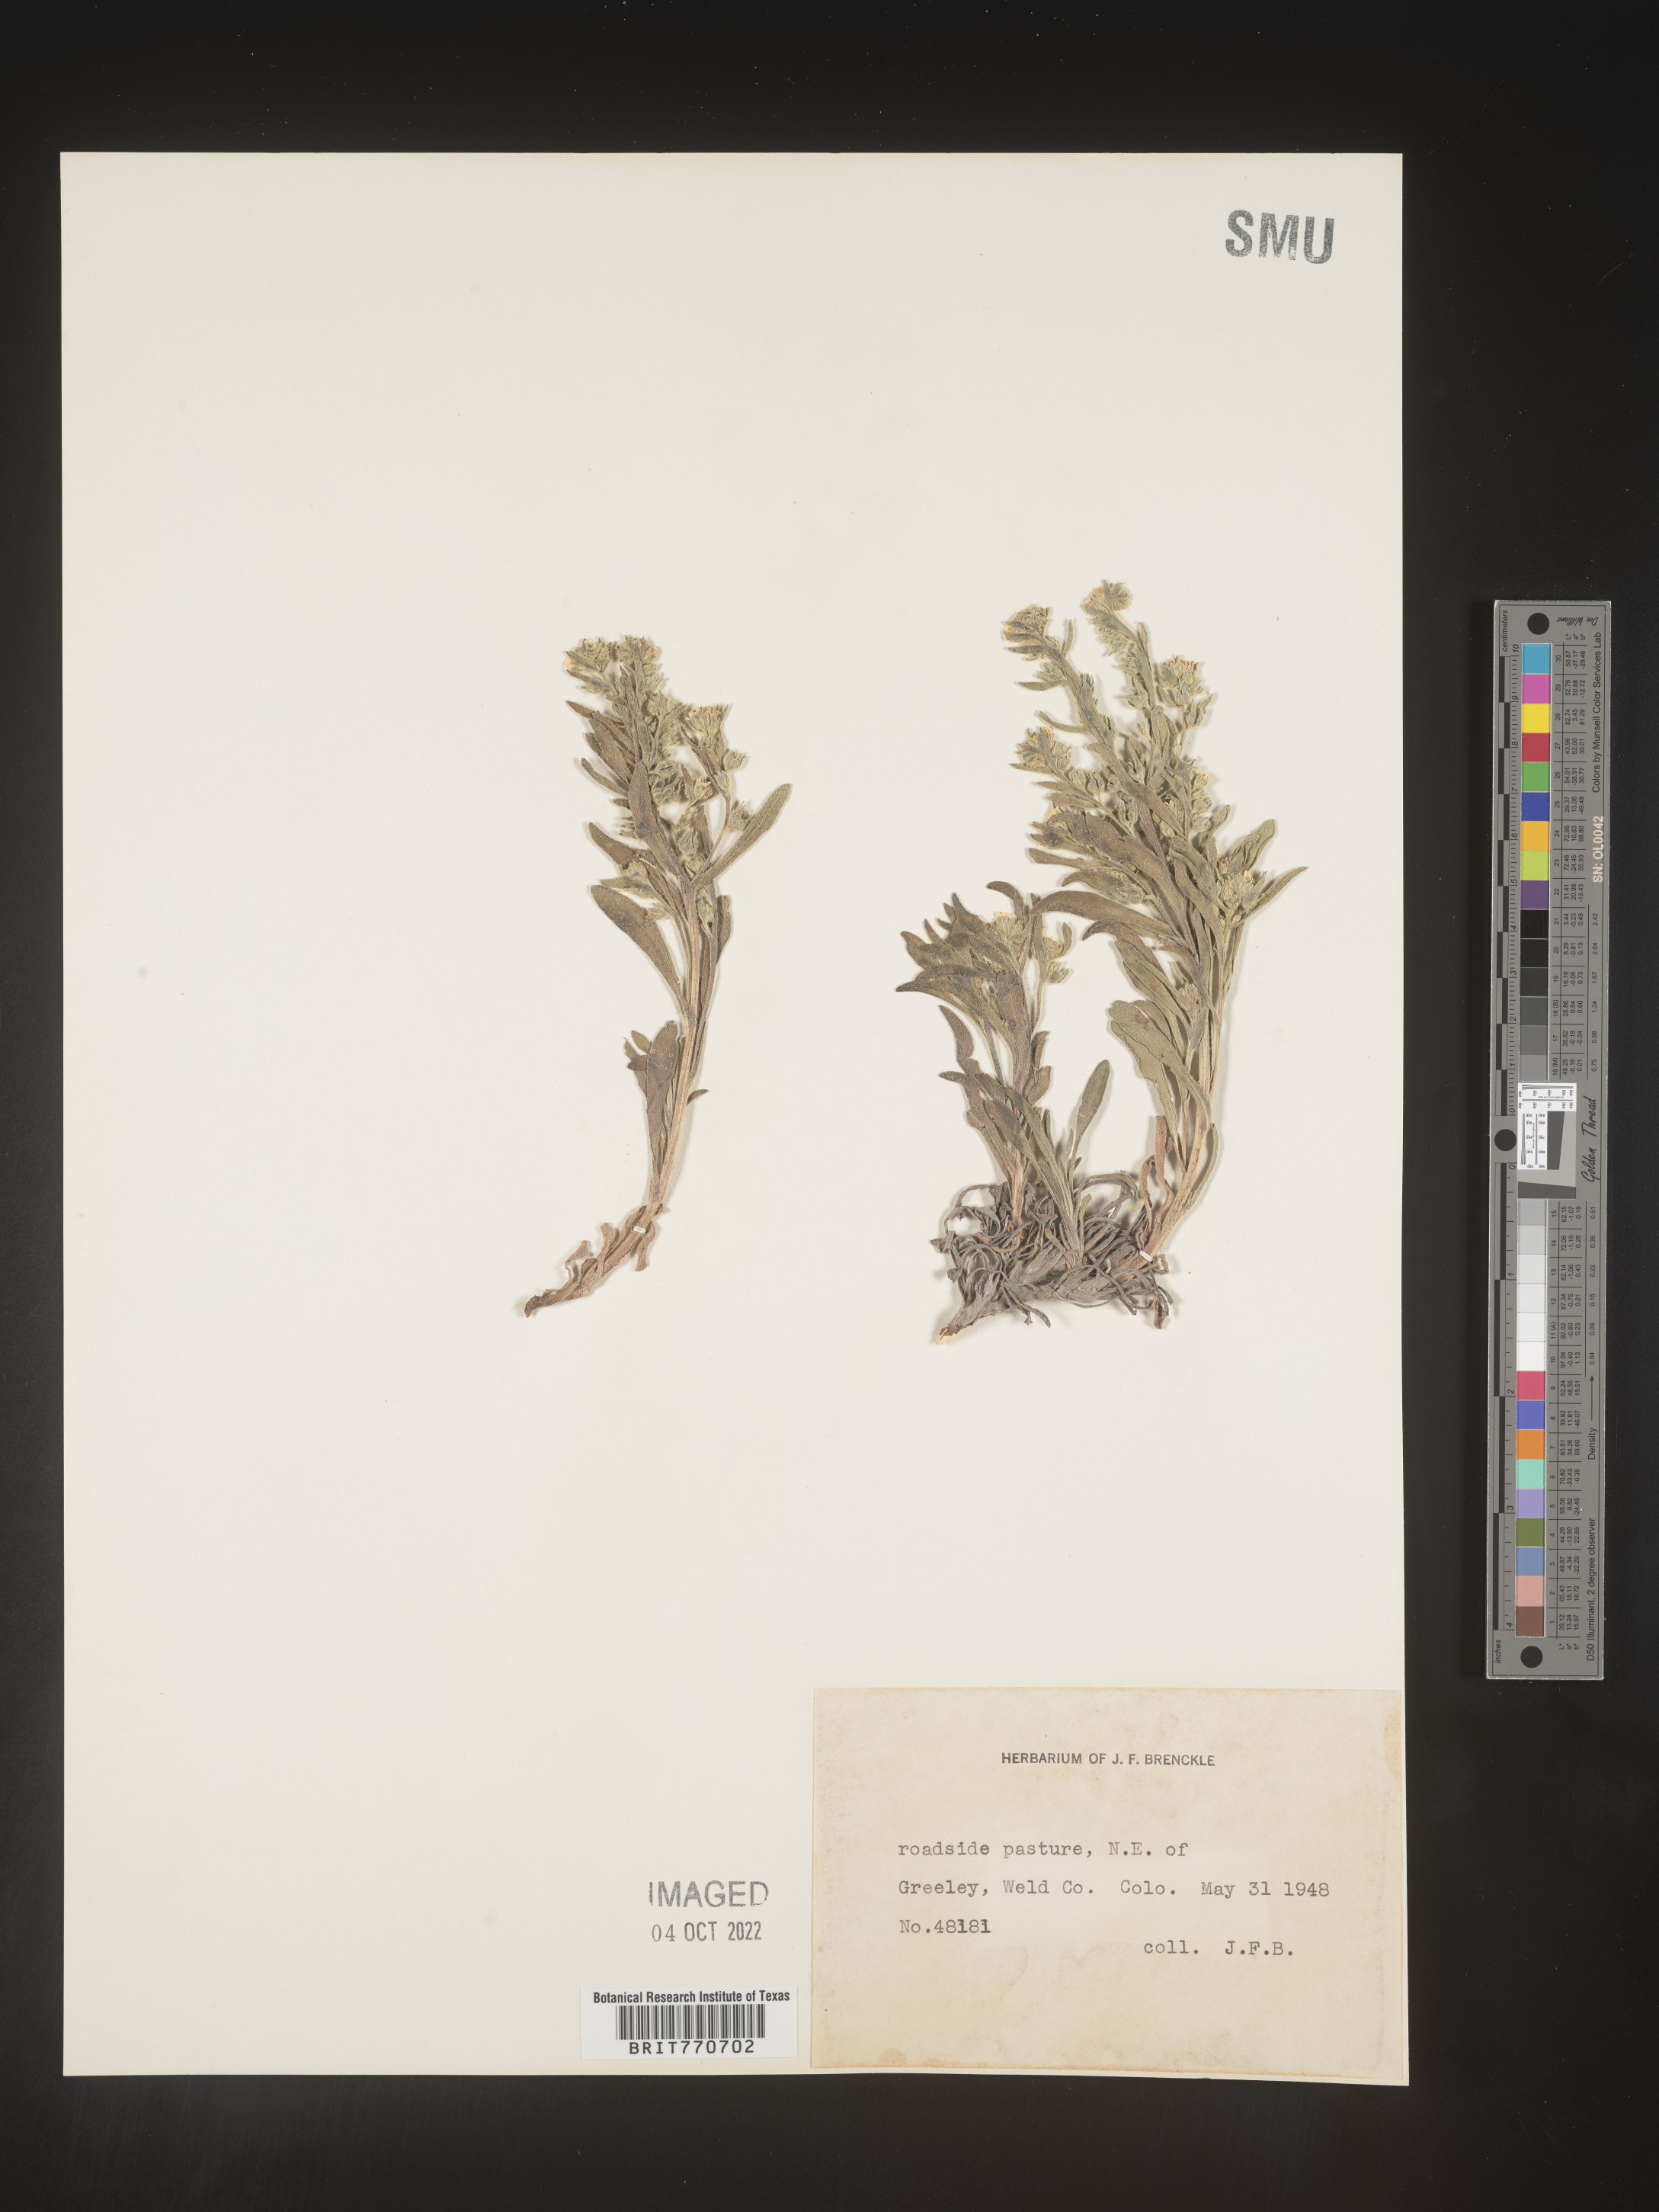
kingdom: Plantae
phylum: Tracheophyta
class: Magnoliopsida
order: Boraginales
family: Boraginaceae
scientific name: Boraginaceae
